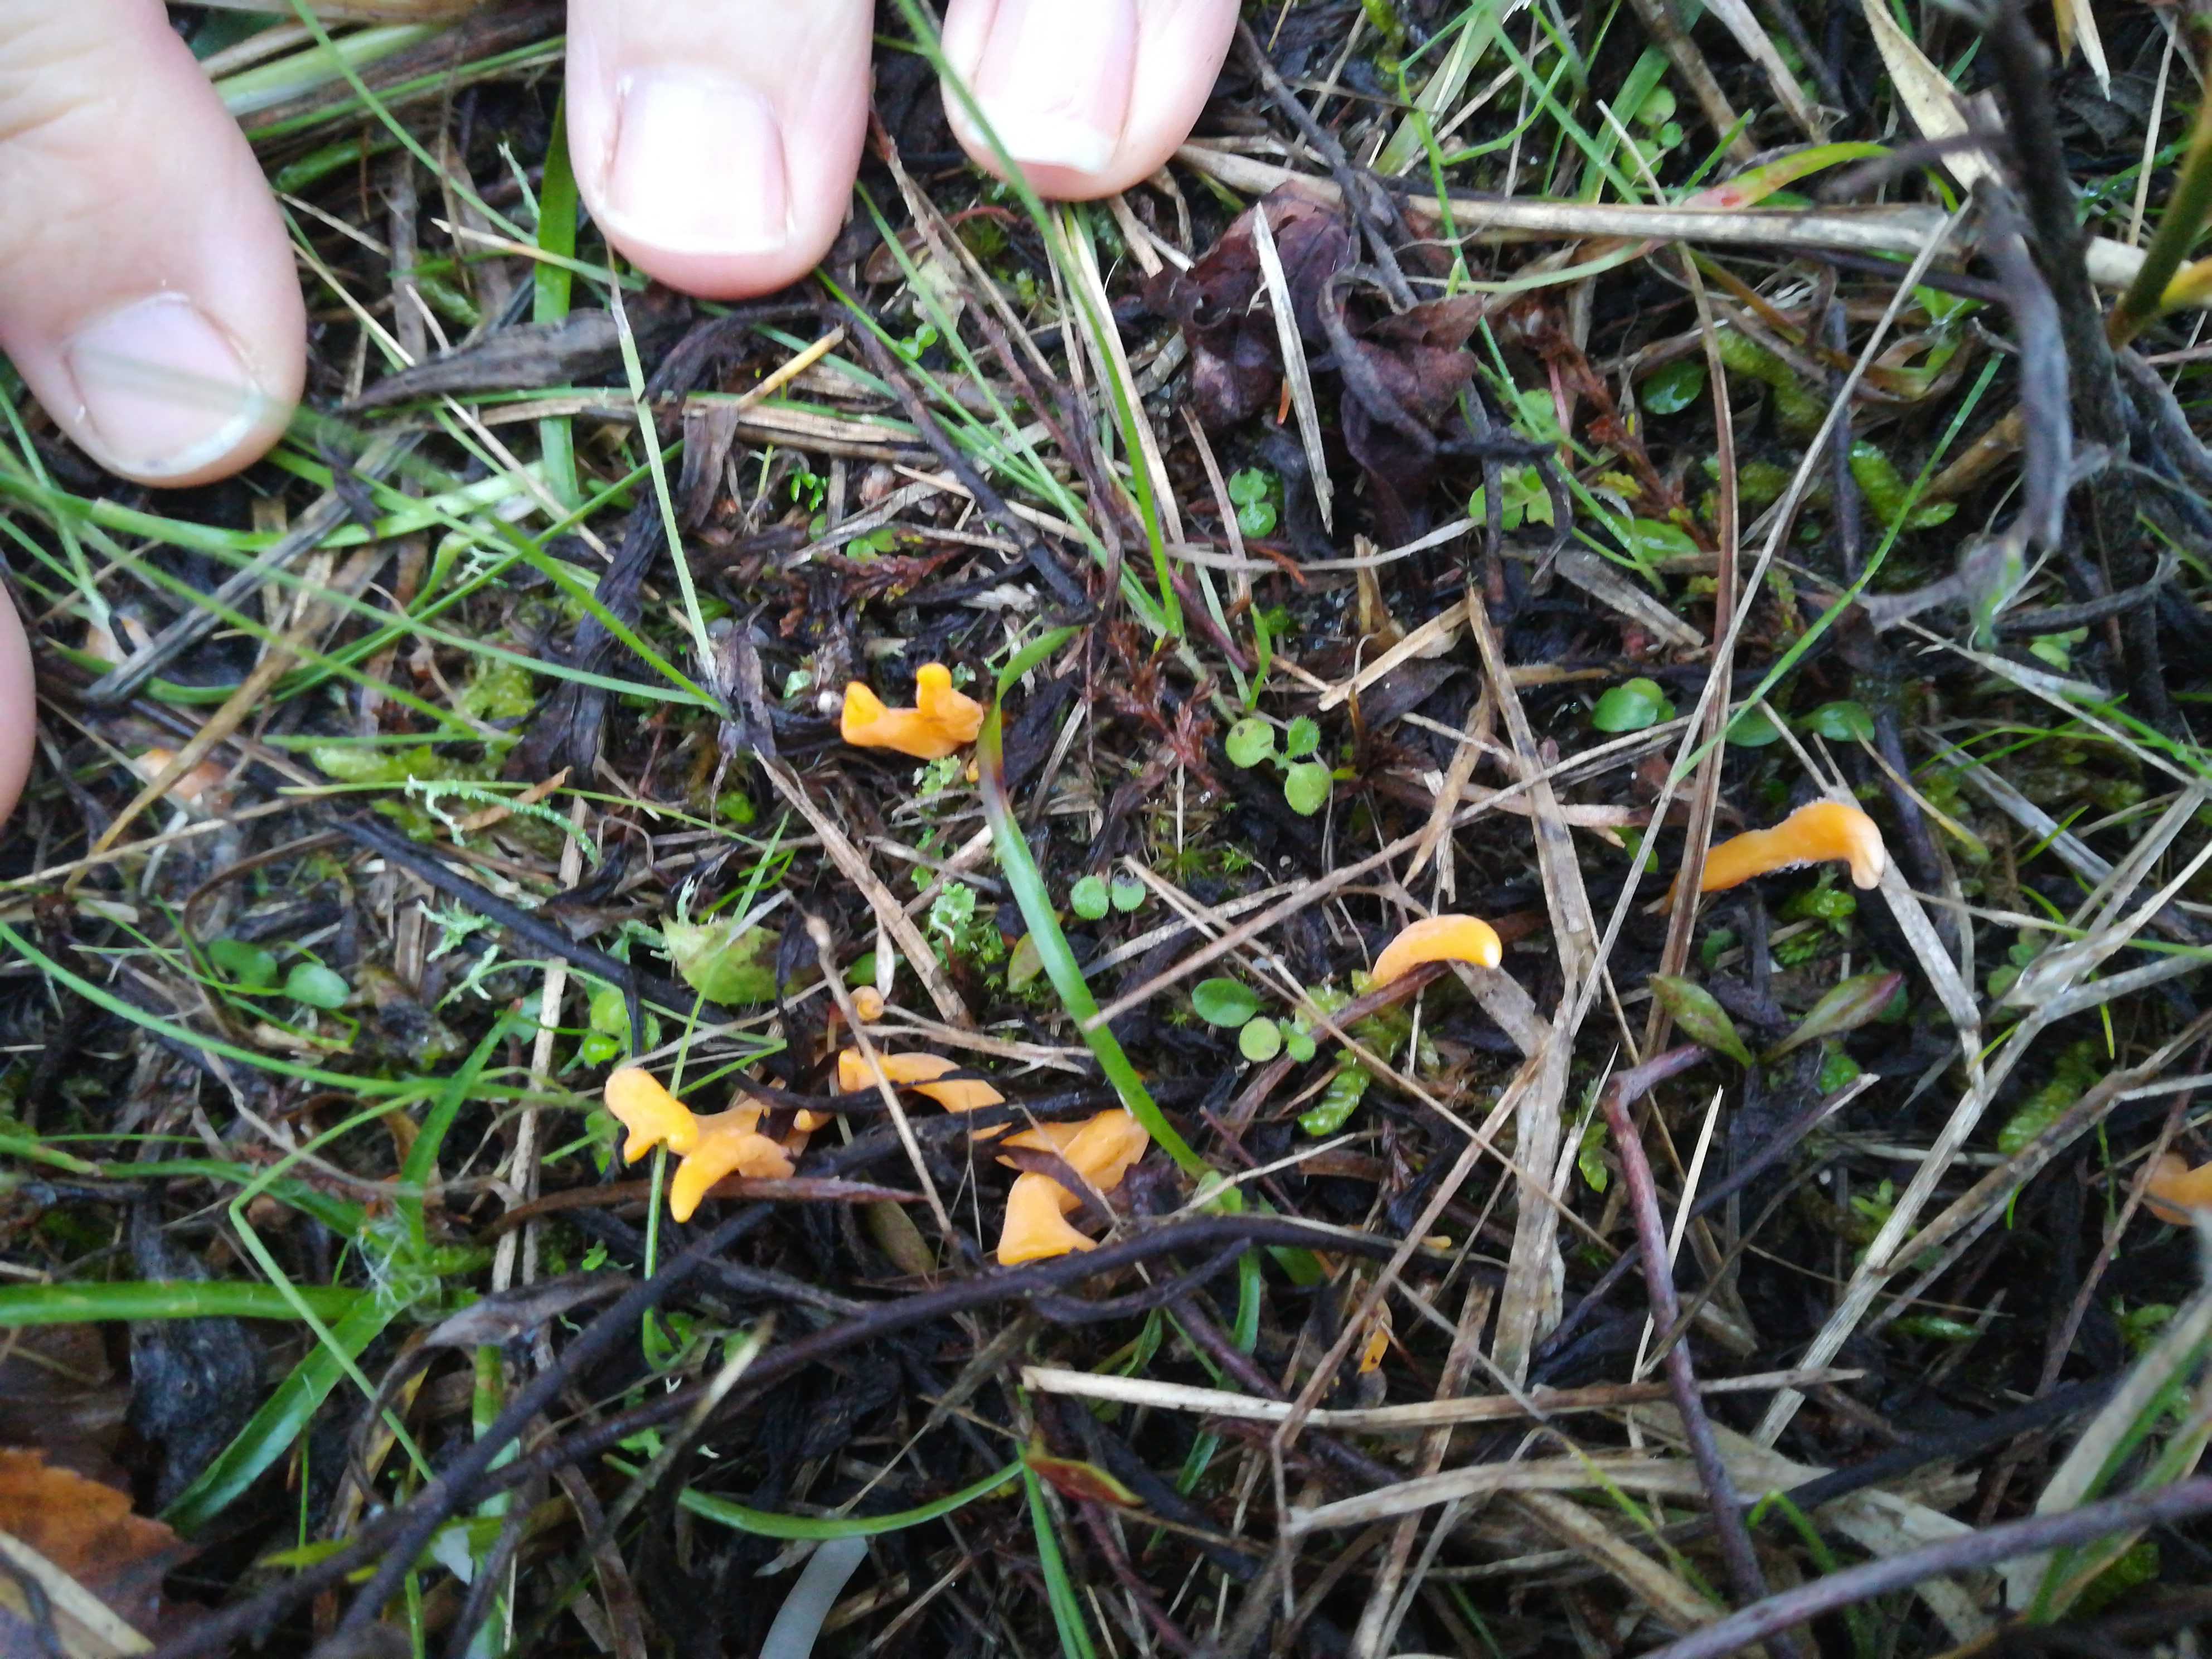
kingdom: Fungi
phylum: Basidiomycota
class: Agaricomycetes
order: Agaricales
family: Clavariaceae
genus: Clavulinopsis
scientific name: Clavulinopsis luteoalba
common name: abrikos-køllesvamp
